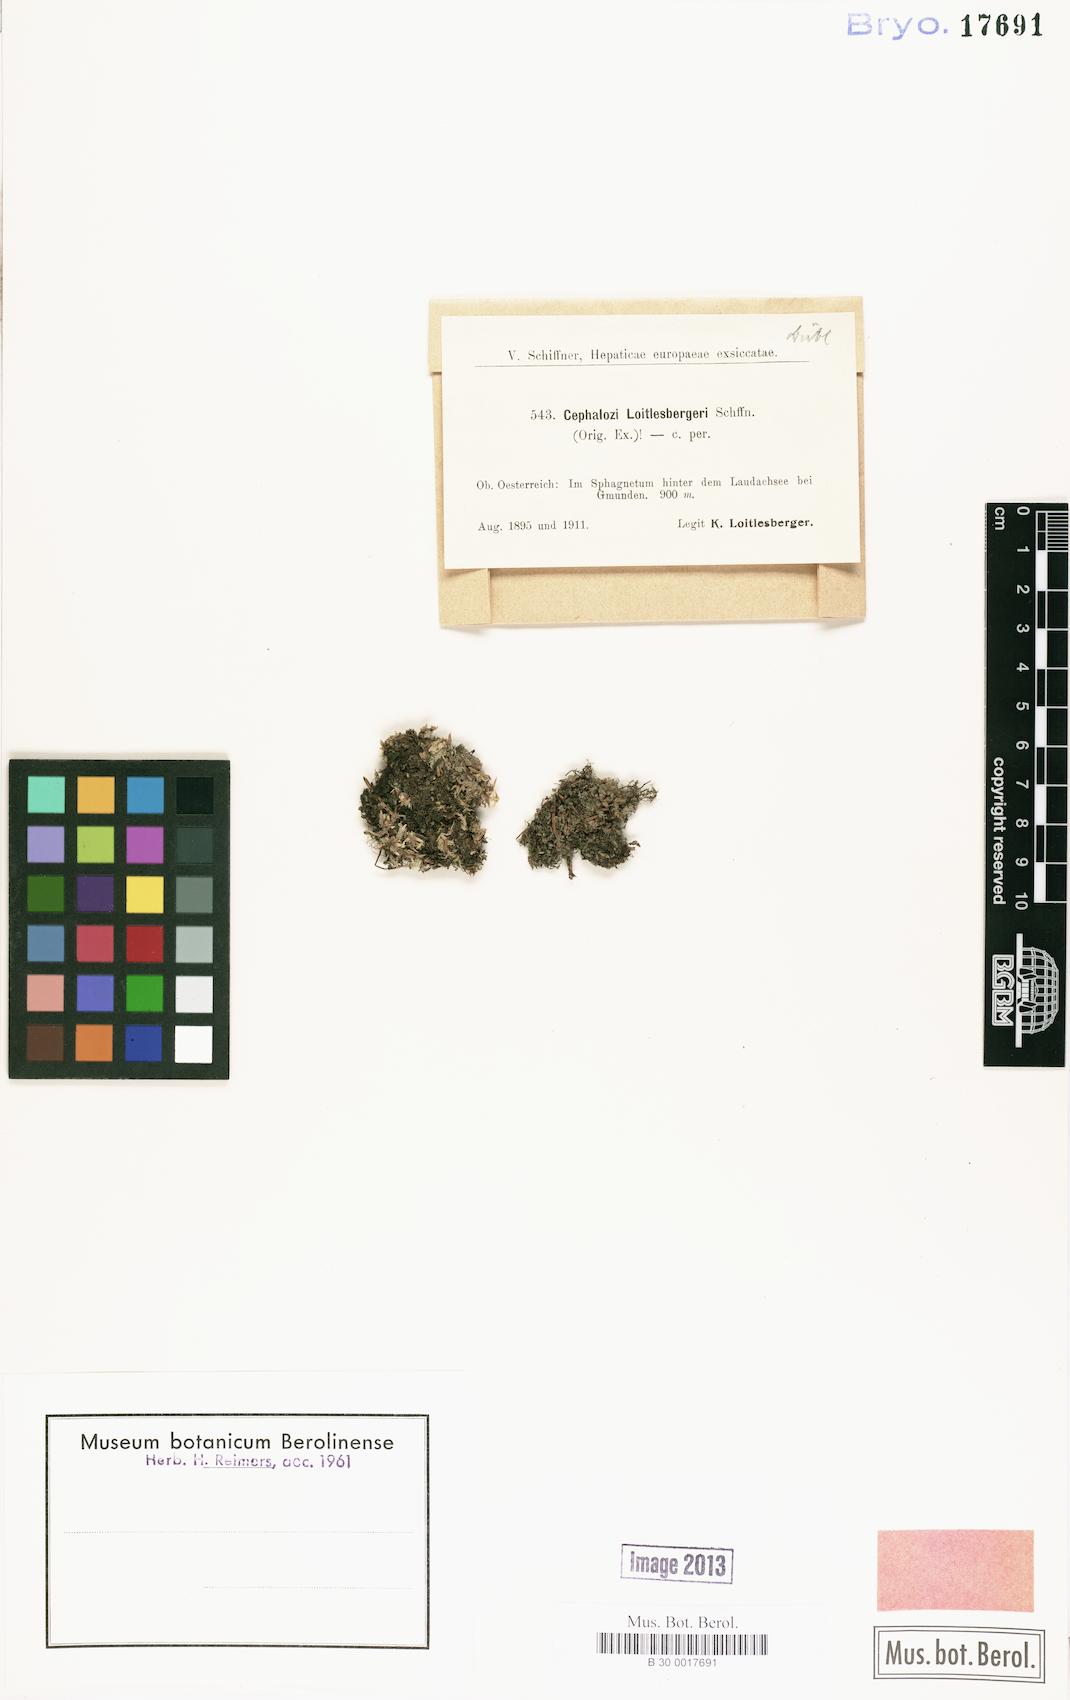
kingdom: Plantae
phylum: Marchantiophyta
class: Jungermanniopsida
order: Jungermanniales
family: Cephaloziaceae
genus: Fuscocephaloziopsis
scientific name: Fuscocephaloziopsis loitlesbergeri
